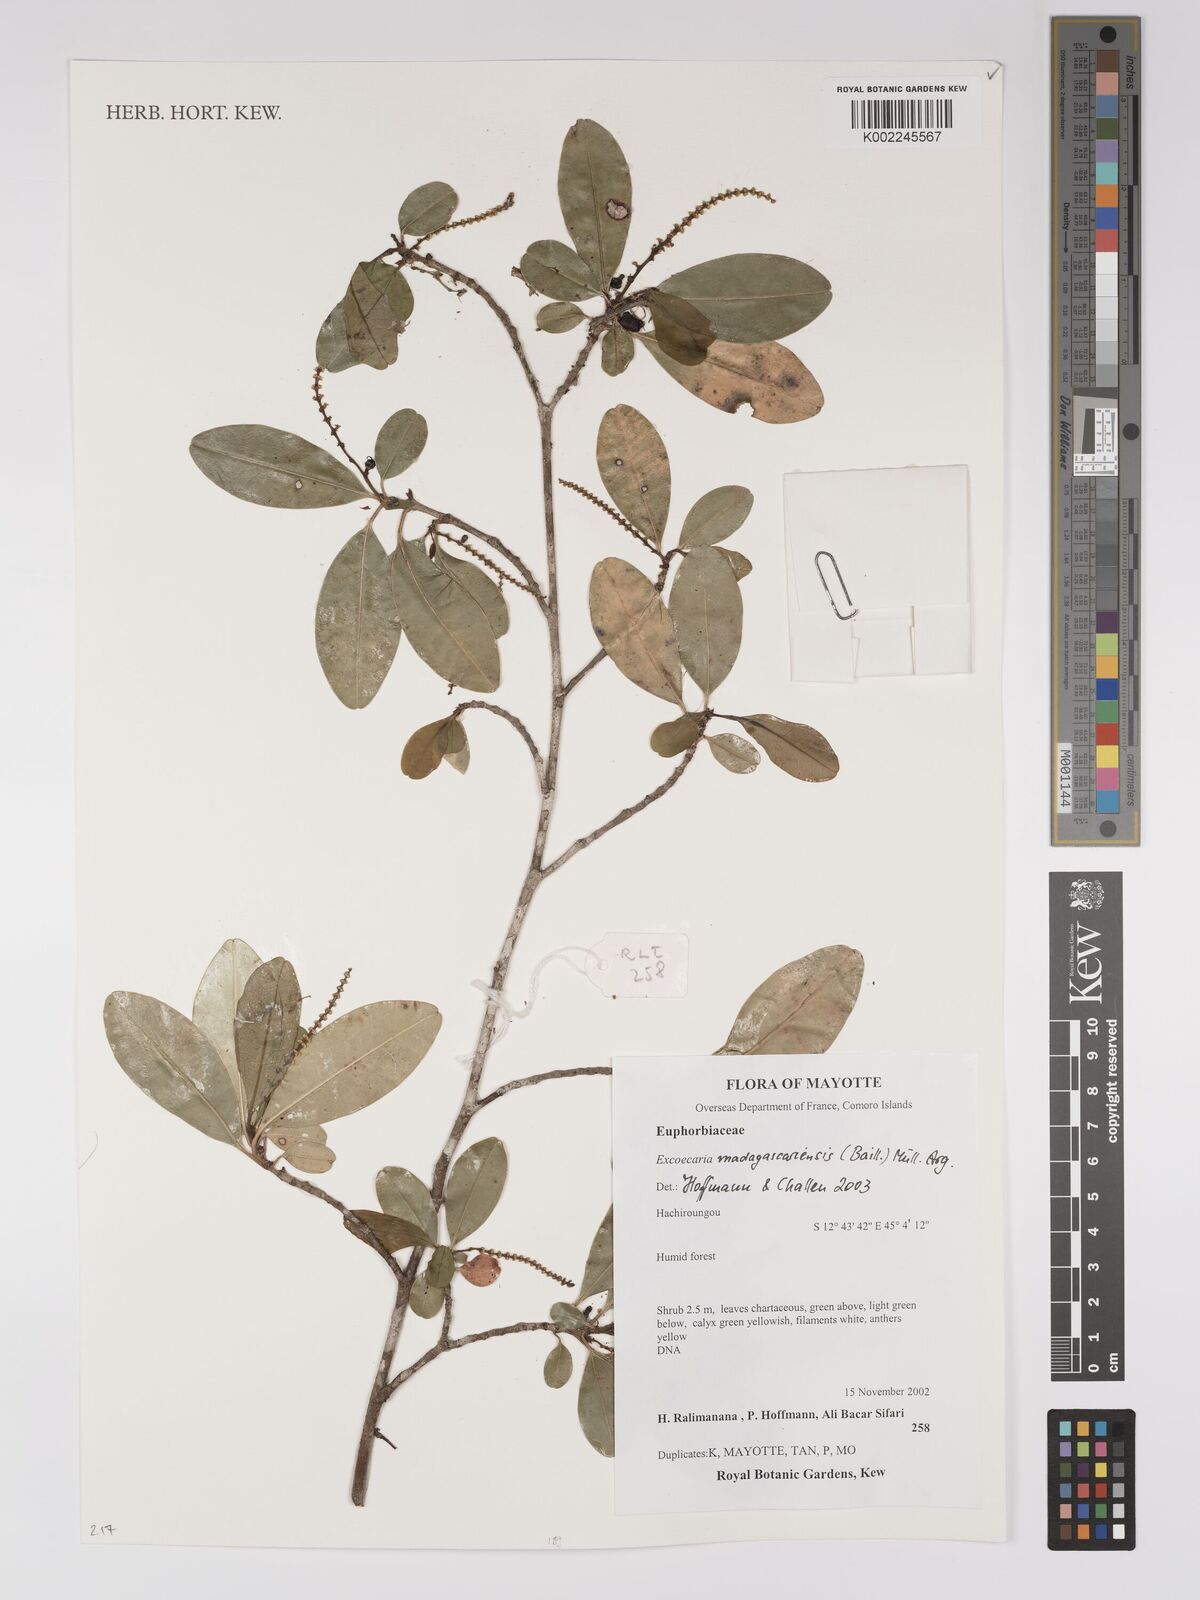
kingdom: Plantae
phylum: Tracheophyta
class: Magnoliopsida
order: Malpighiales
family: Euphorbiaceae
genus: Excoecaria
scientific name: Excoecaria madagascariensis
